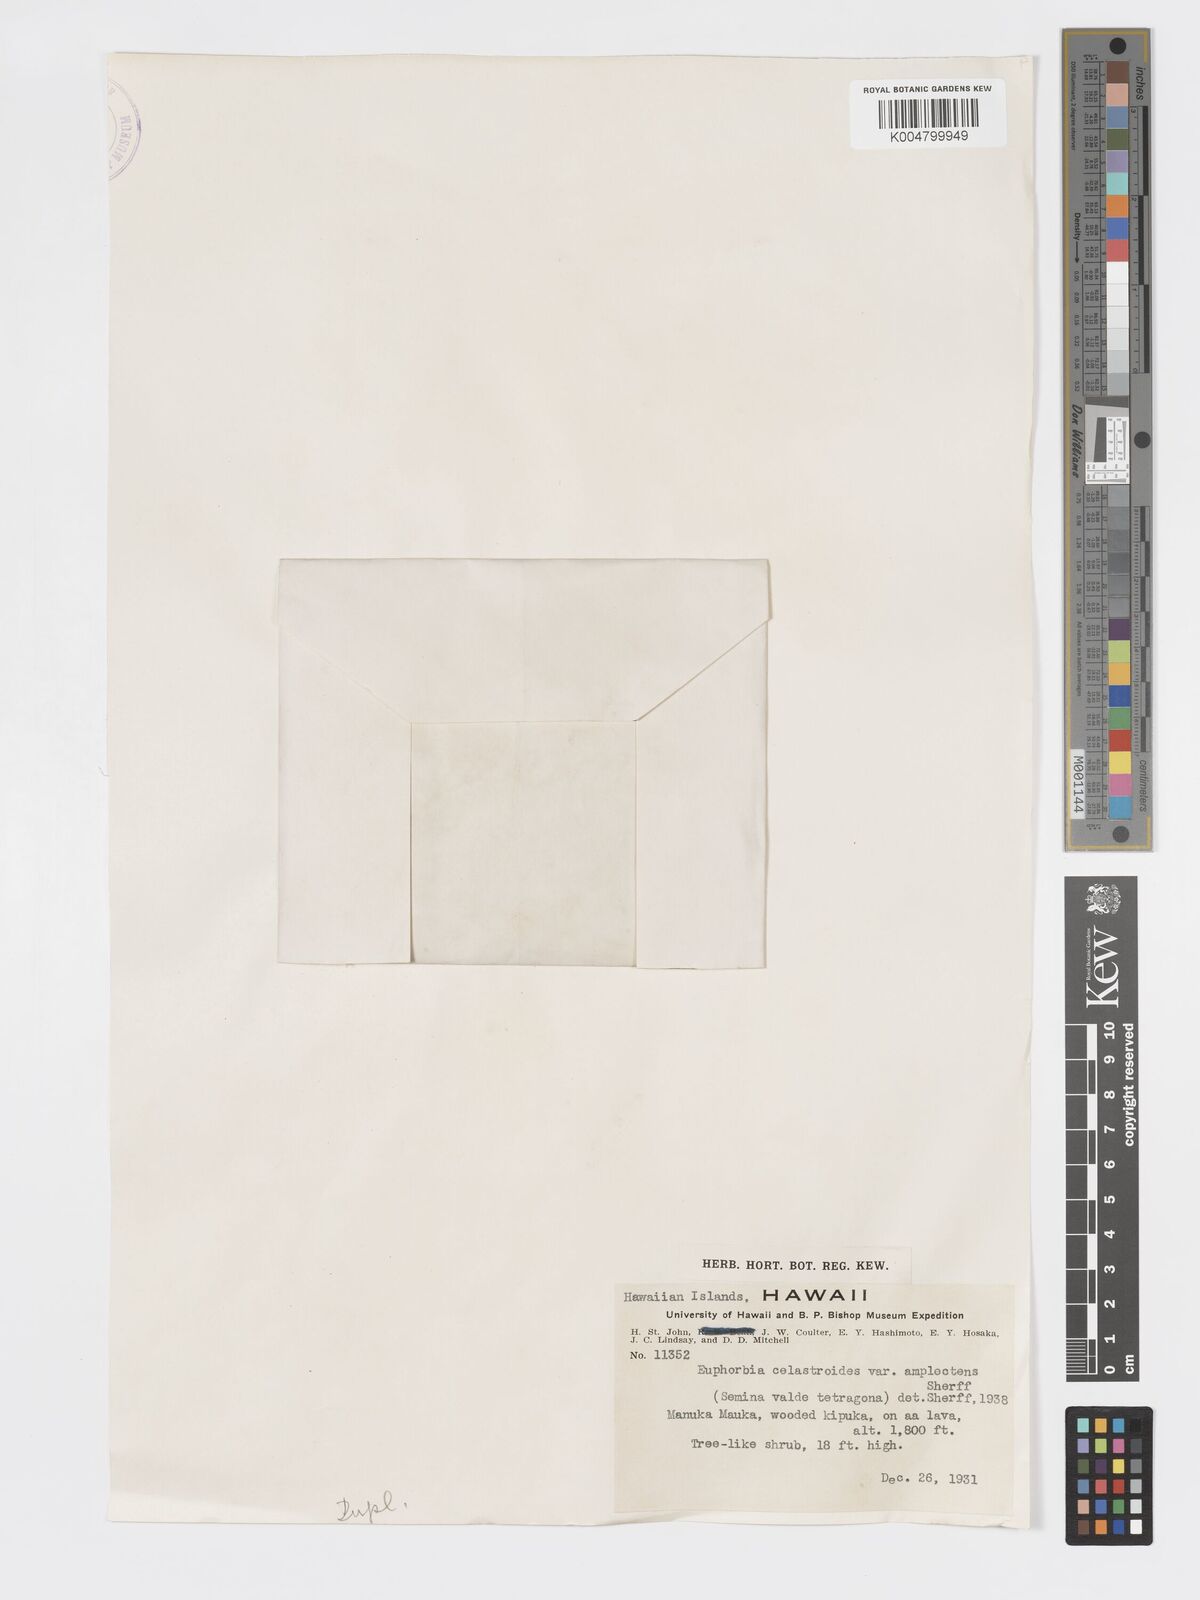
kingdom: Plantae
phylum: Tracheophyta
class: Magnoliopsida
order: Malpighiales
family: Euphorbiaceae
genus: Euphorbia
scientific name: Euphorbia celastroides
